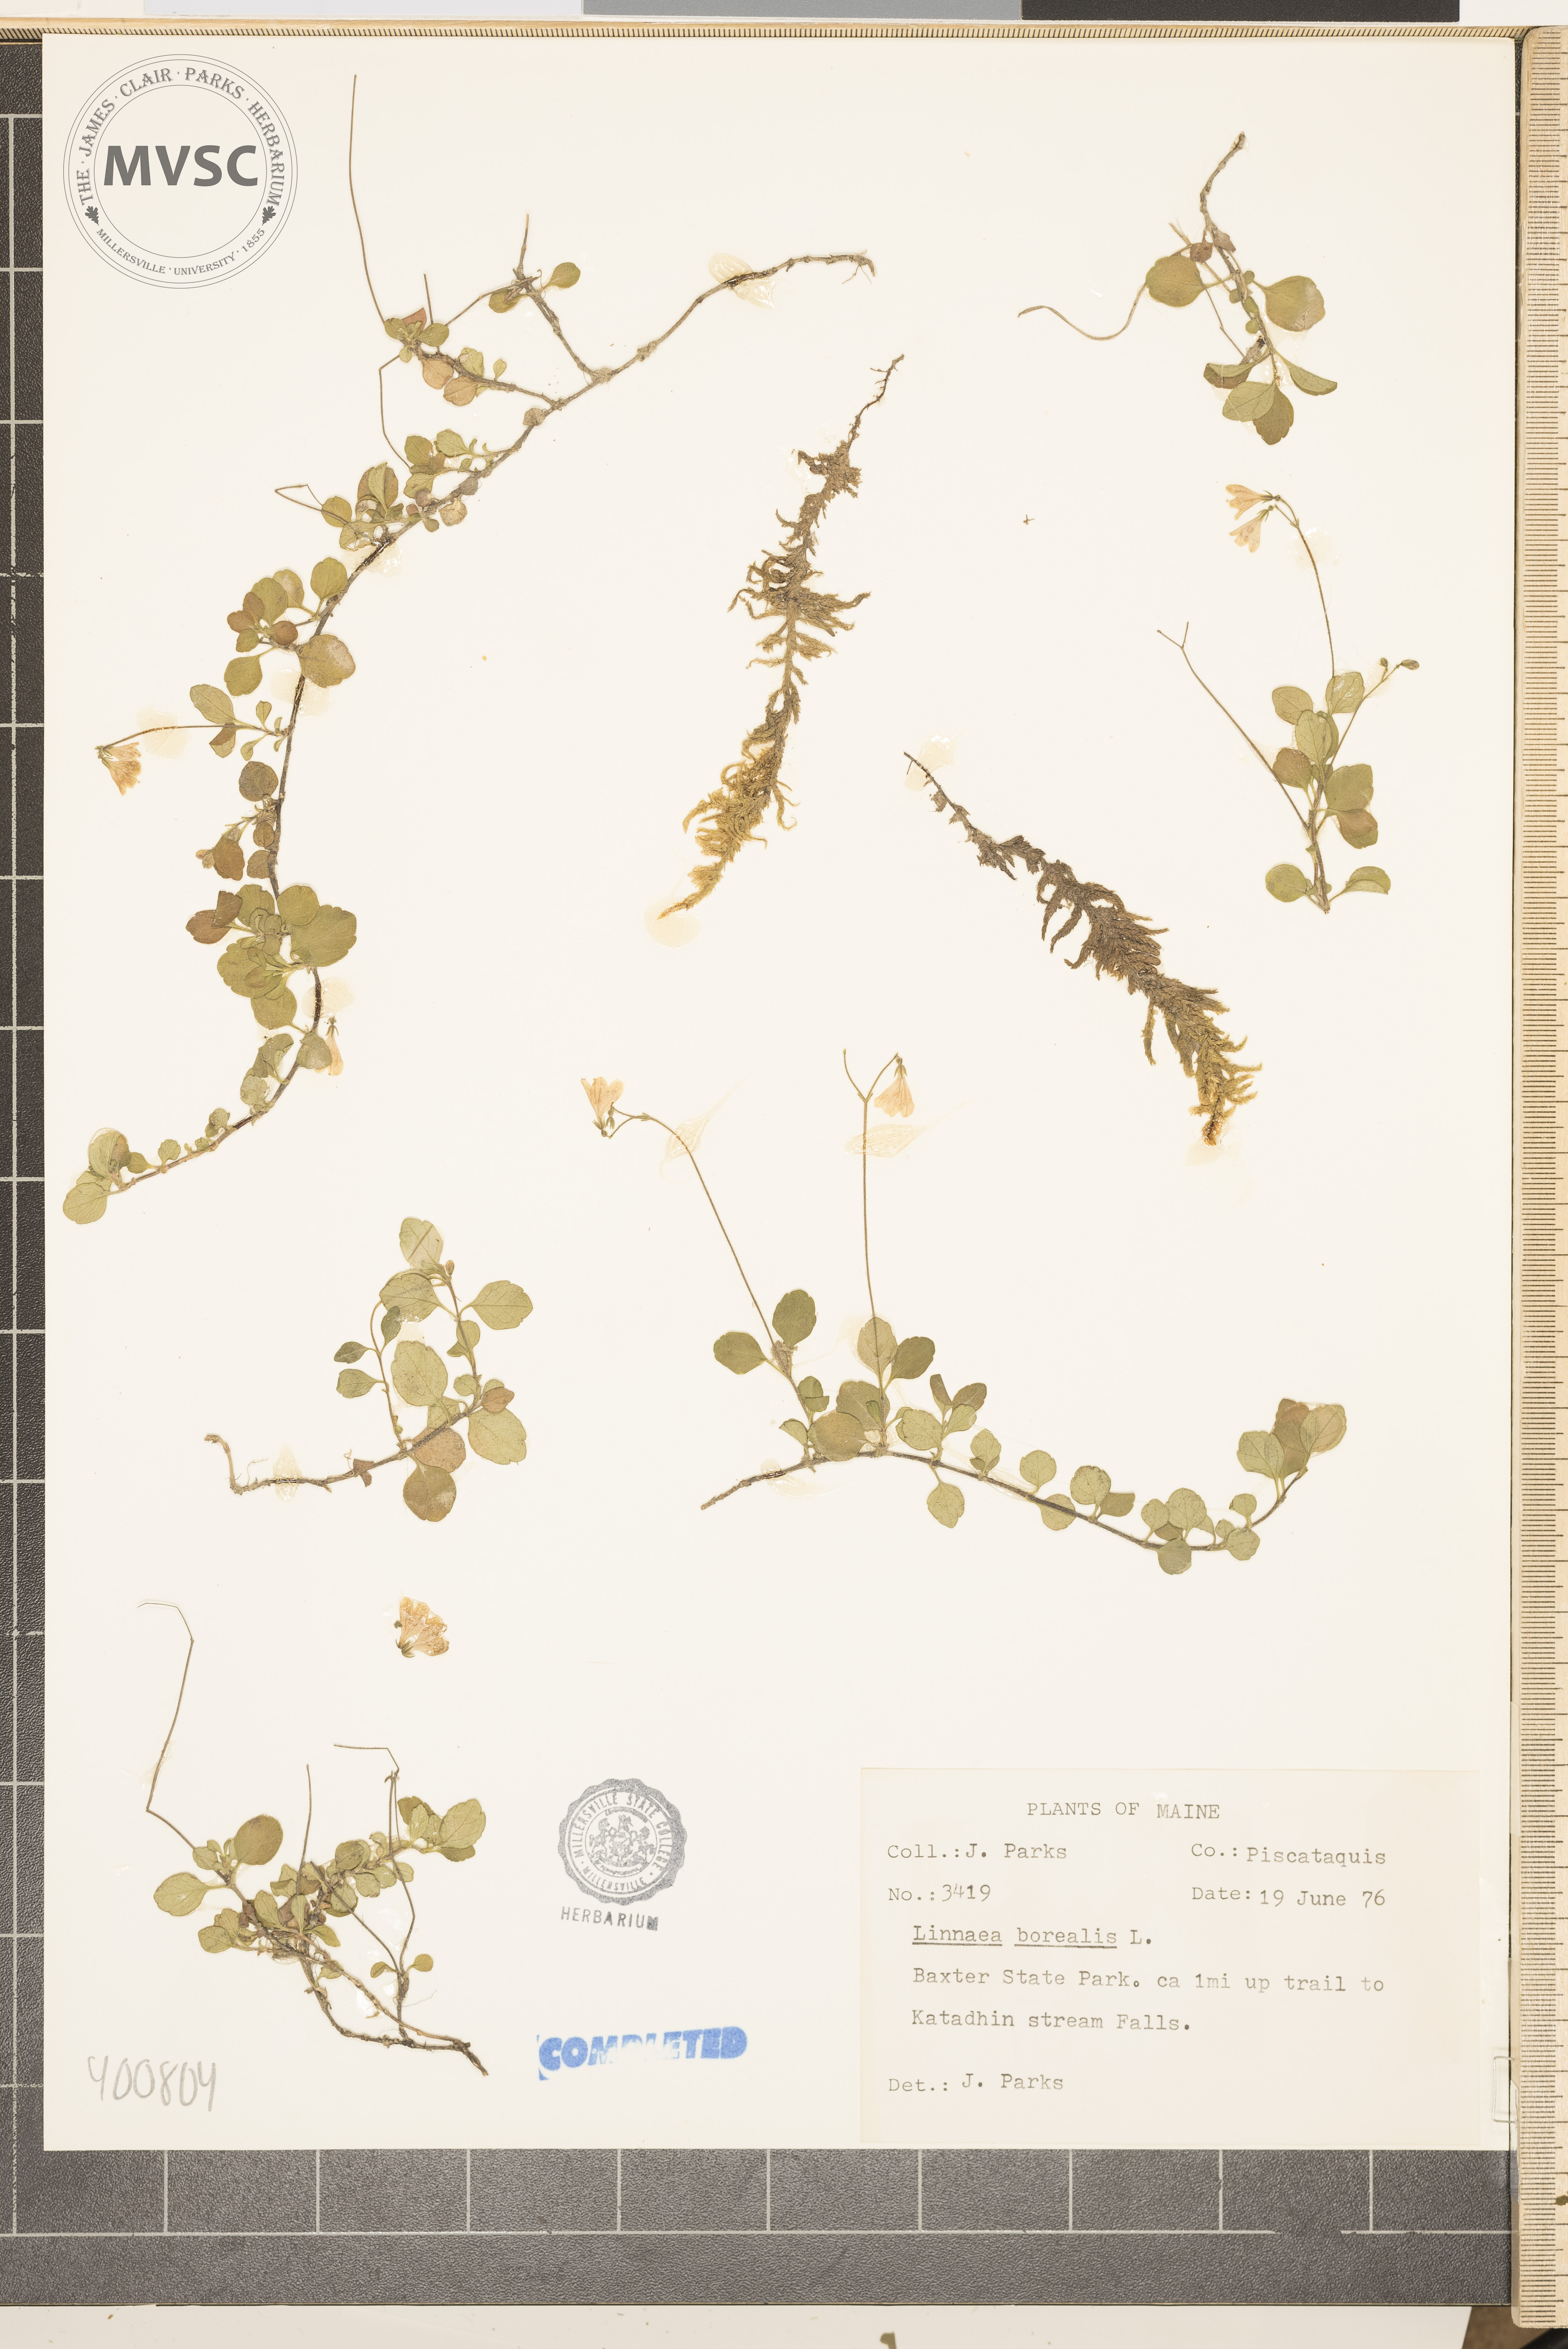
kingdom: Plantae
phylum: Tracheophyta
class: Magnoliopsida
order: Dipsacales
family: Caprifoliaceae
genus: Linnaea
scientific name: Linnaea borealis
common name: Twinflower
